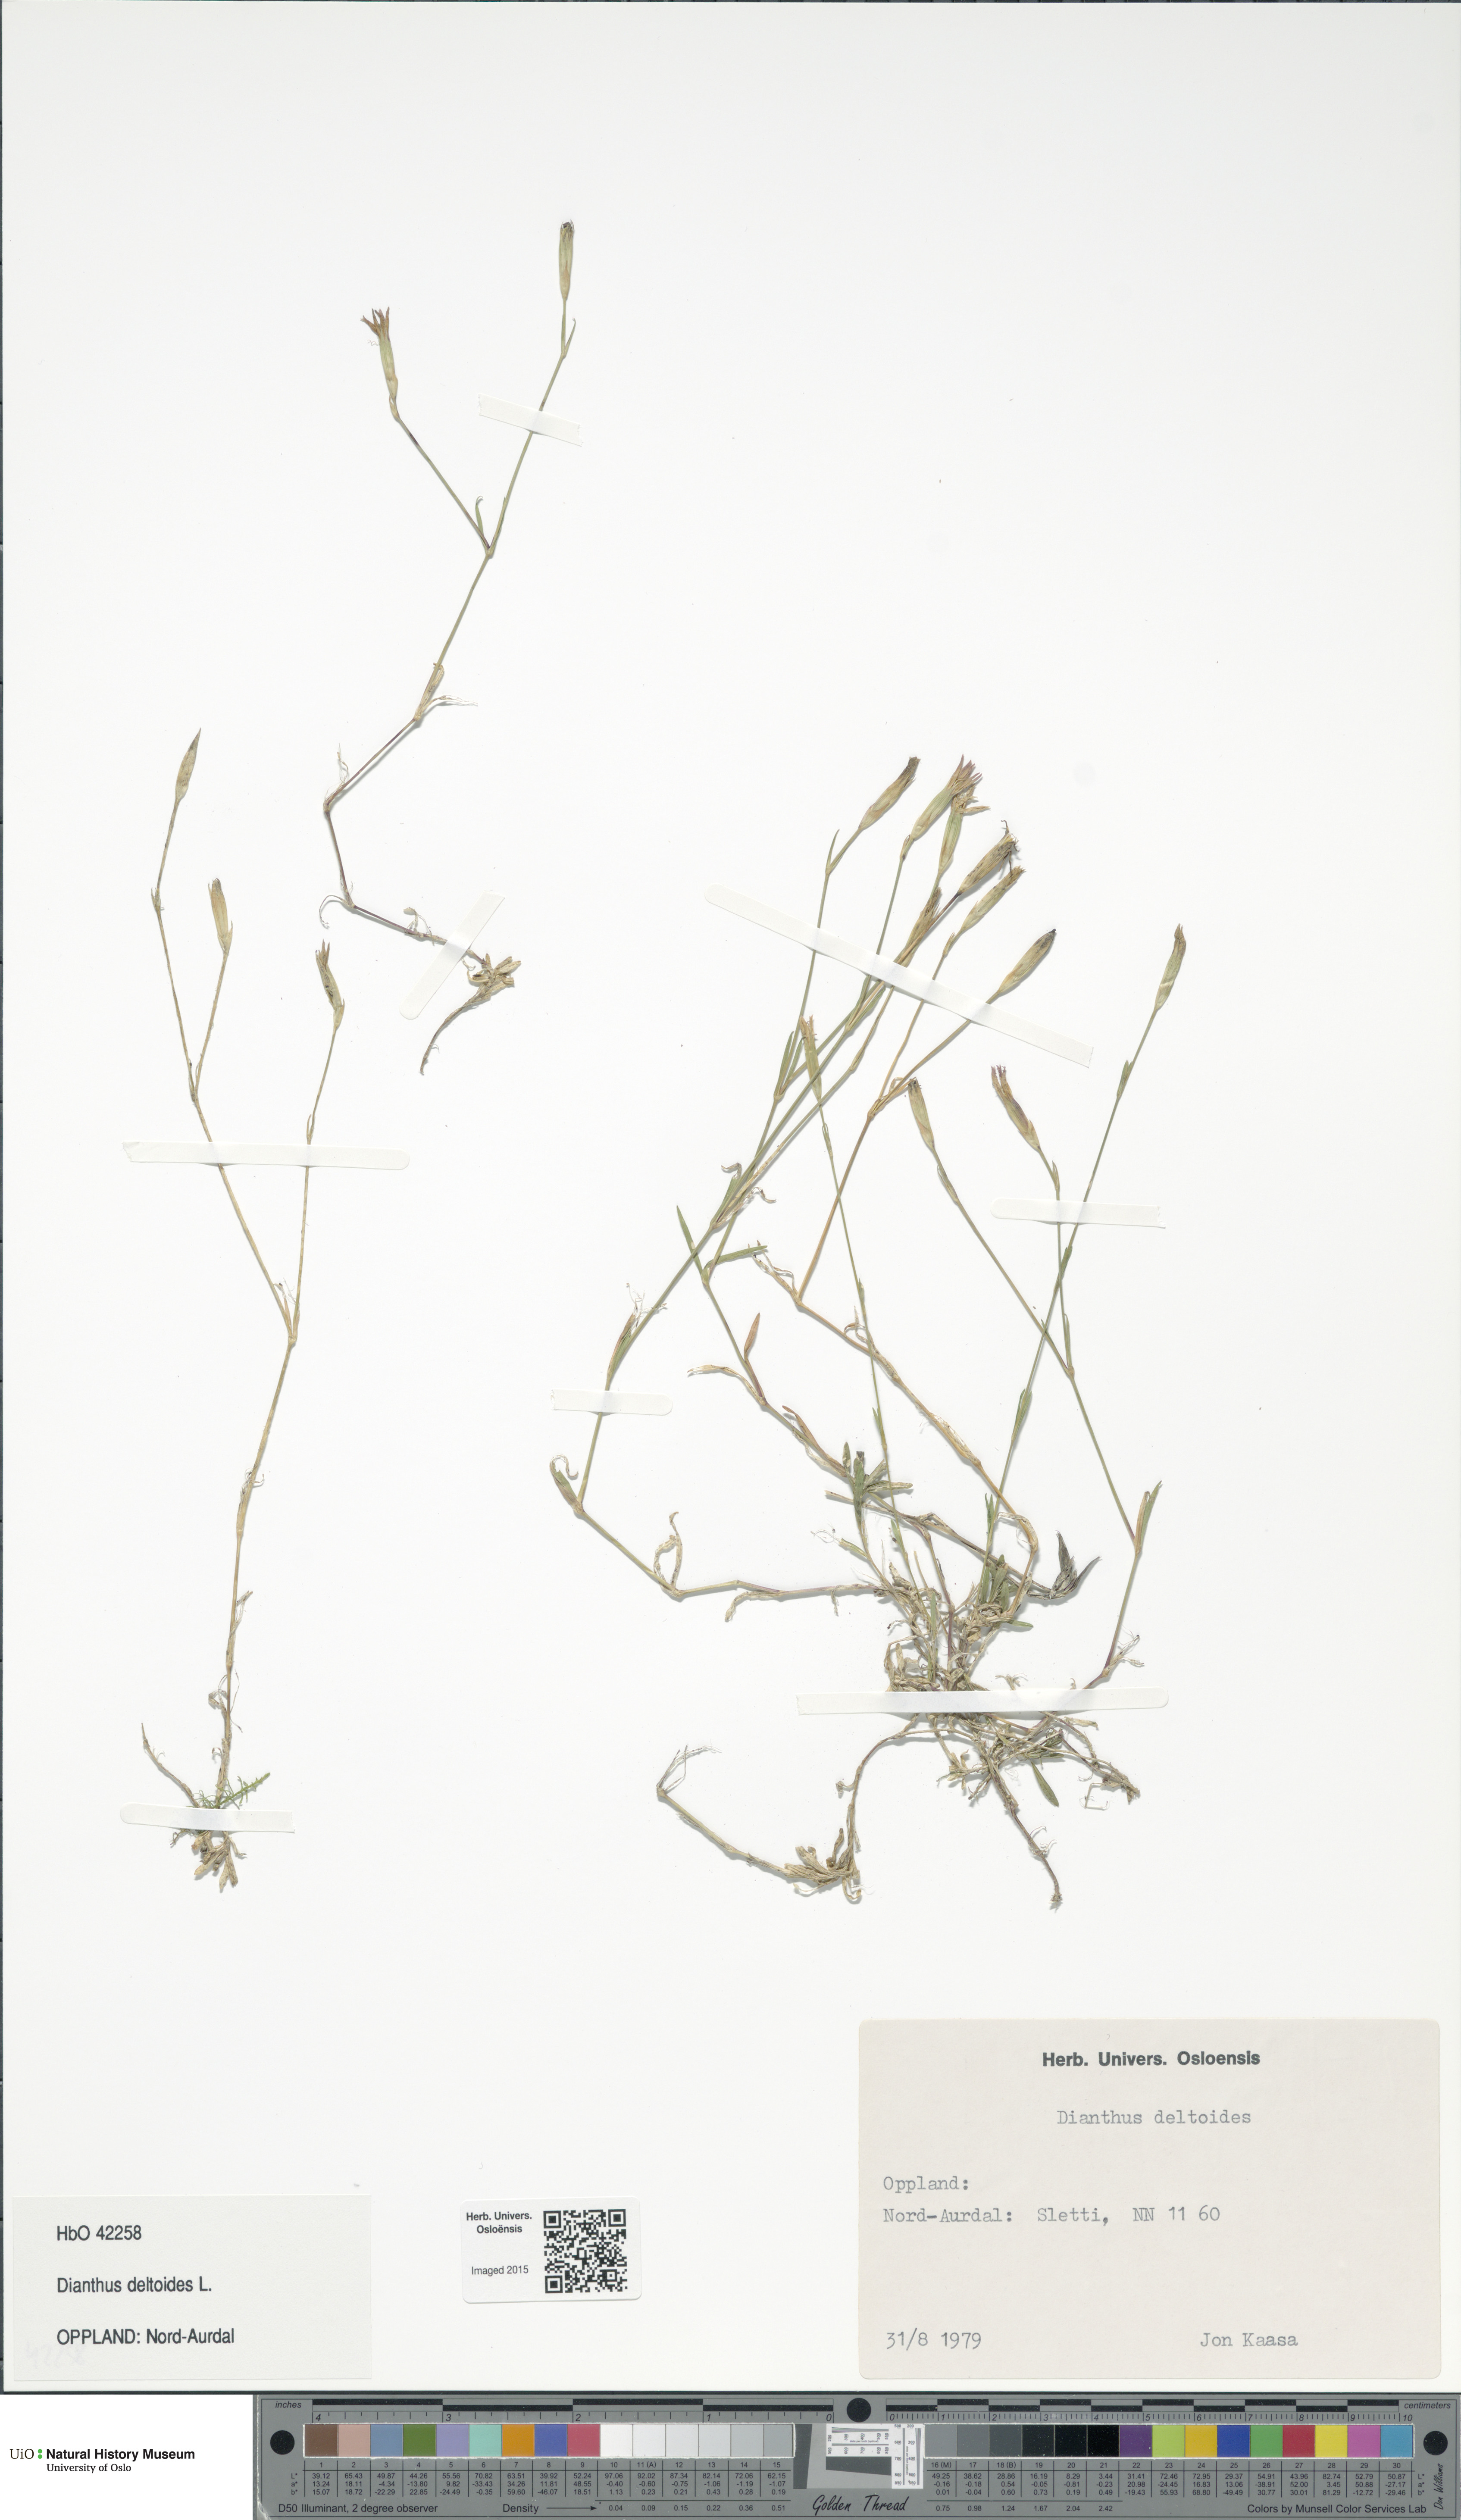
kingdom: Plantae
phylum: Tracheophyta
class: Magnoliopsida
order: Caryophyllales
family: Caryophyllaceae
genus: Dianthus
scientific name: Dianthus deltoides
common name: Maiden pink
